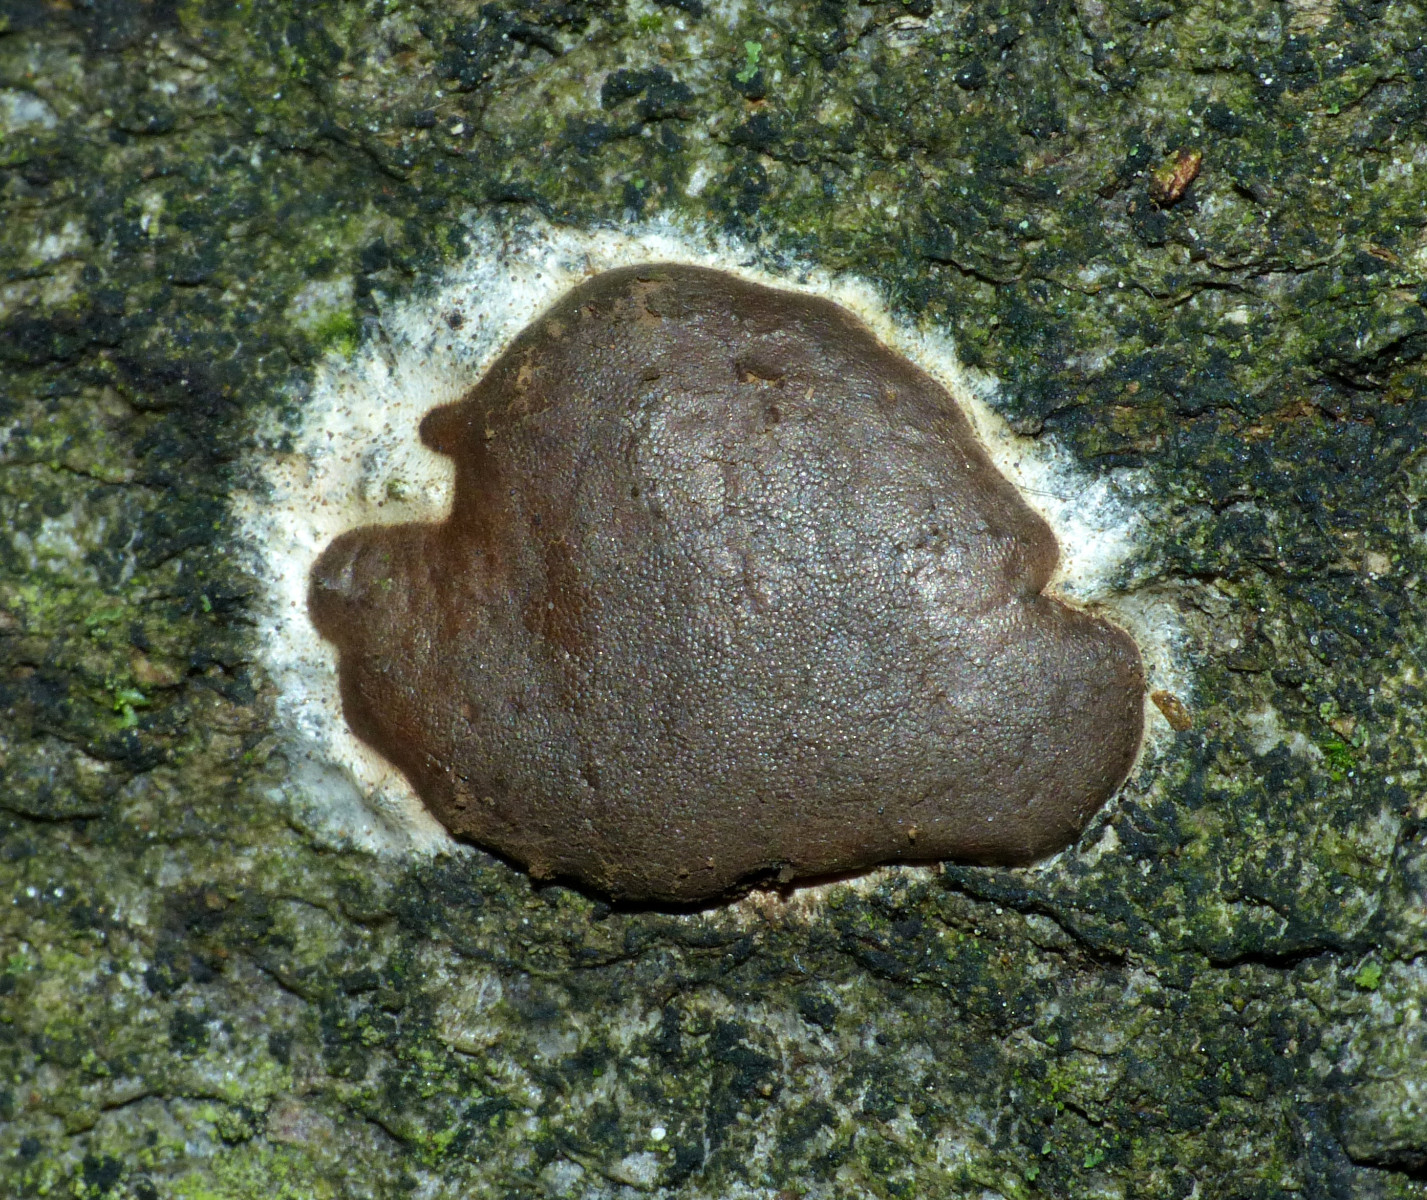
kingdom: Protozoa
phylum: Mycetozoa
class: Myxomycetes
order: Trichiales
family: Dictydiaethaliaceae
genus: Dictydiaethalium
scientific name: Dictydiaethalium plumbeum
